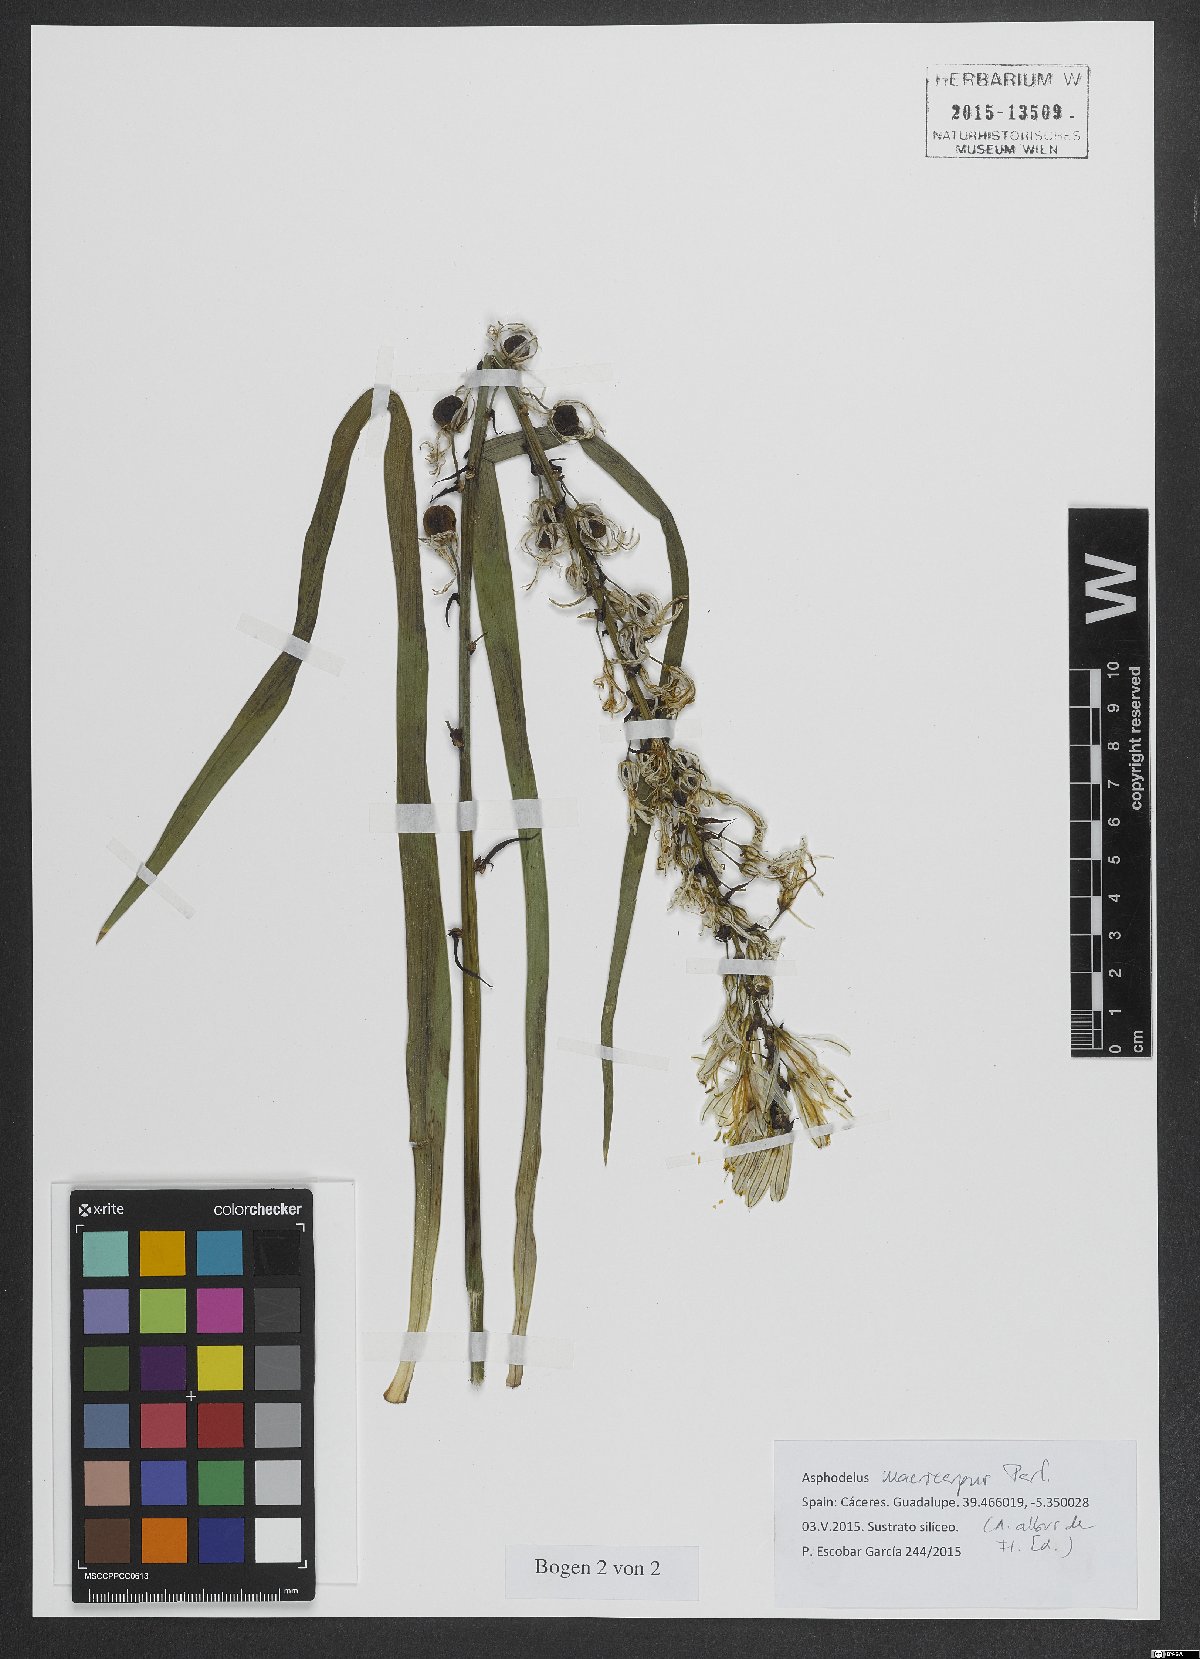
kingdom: Plantae
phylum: Tracheophyta
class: Liliopsida
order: Asparagales
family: Asphodelaceae
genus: Asphodelus
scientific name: Asphodelus macrocarpus
